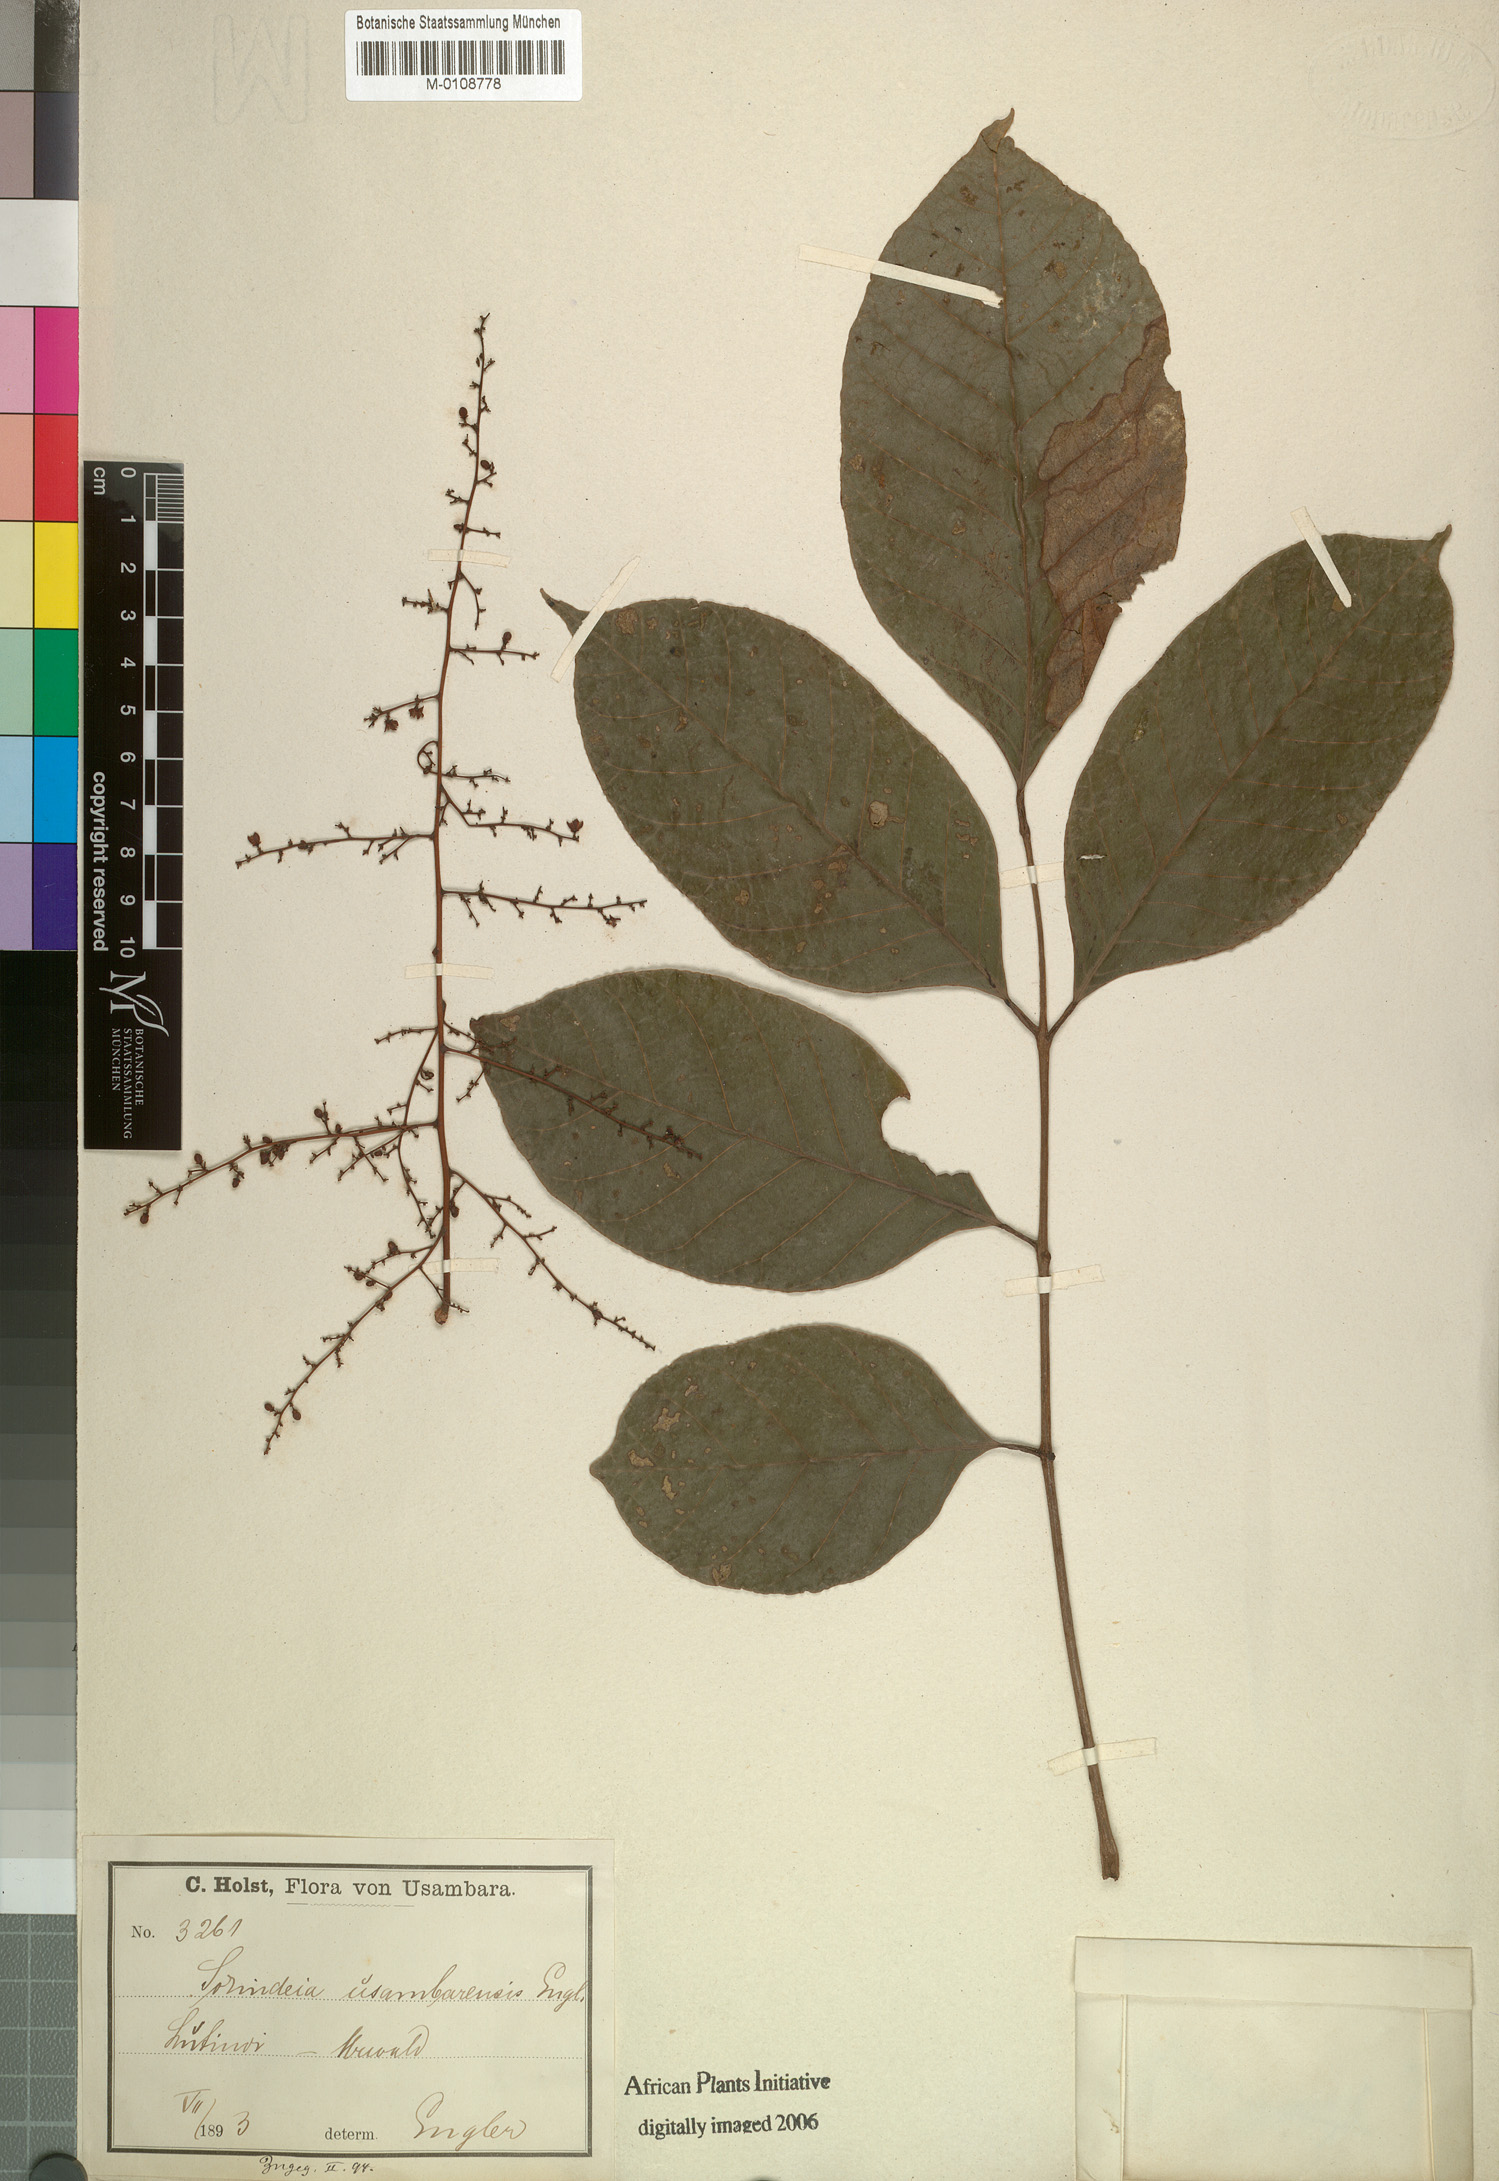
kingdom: Plantae
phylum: Tracheophyta
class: Magnoliopsida
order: Sapindales
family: Anacardiaceae
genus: Sorindeia
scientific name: Sorindeia madagascariensis
